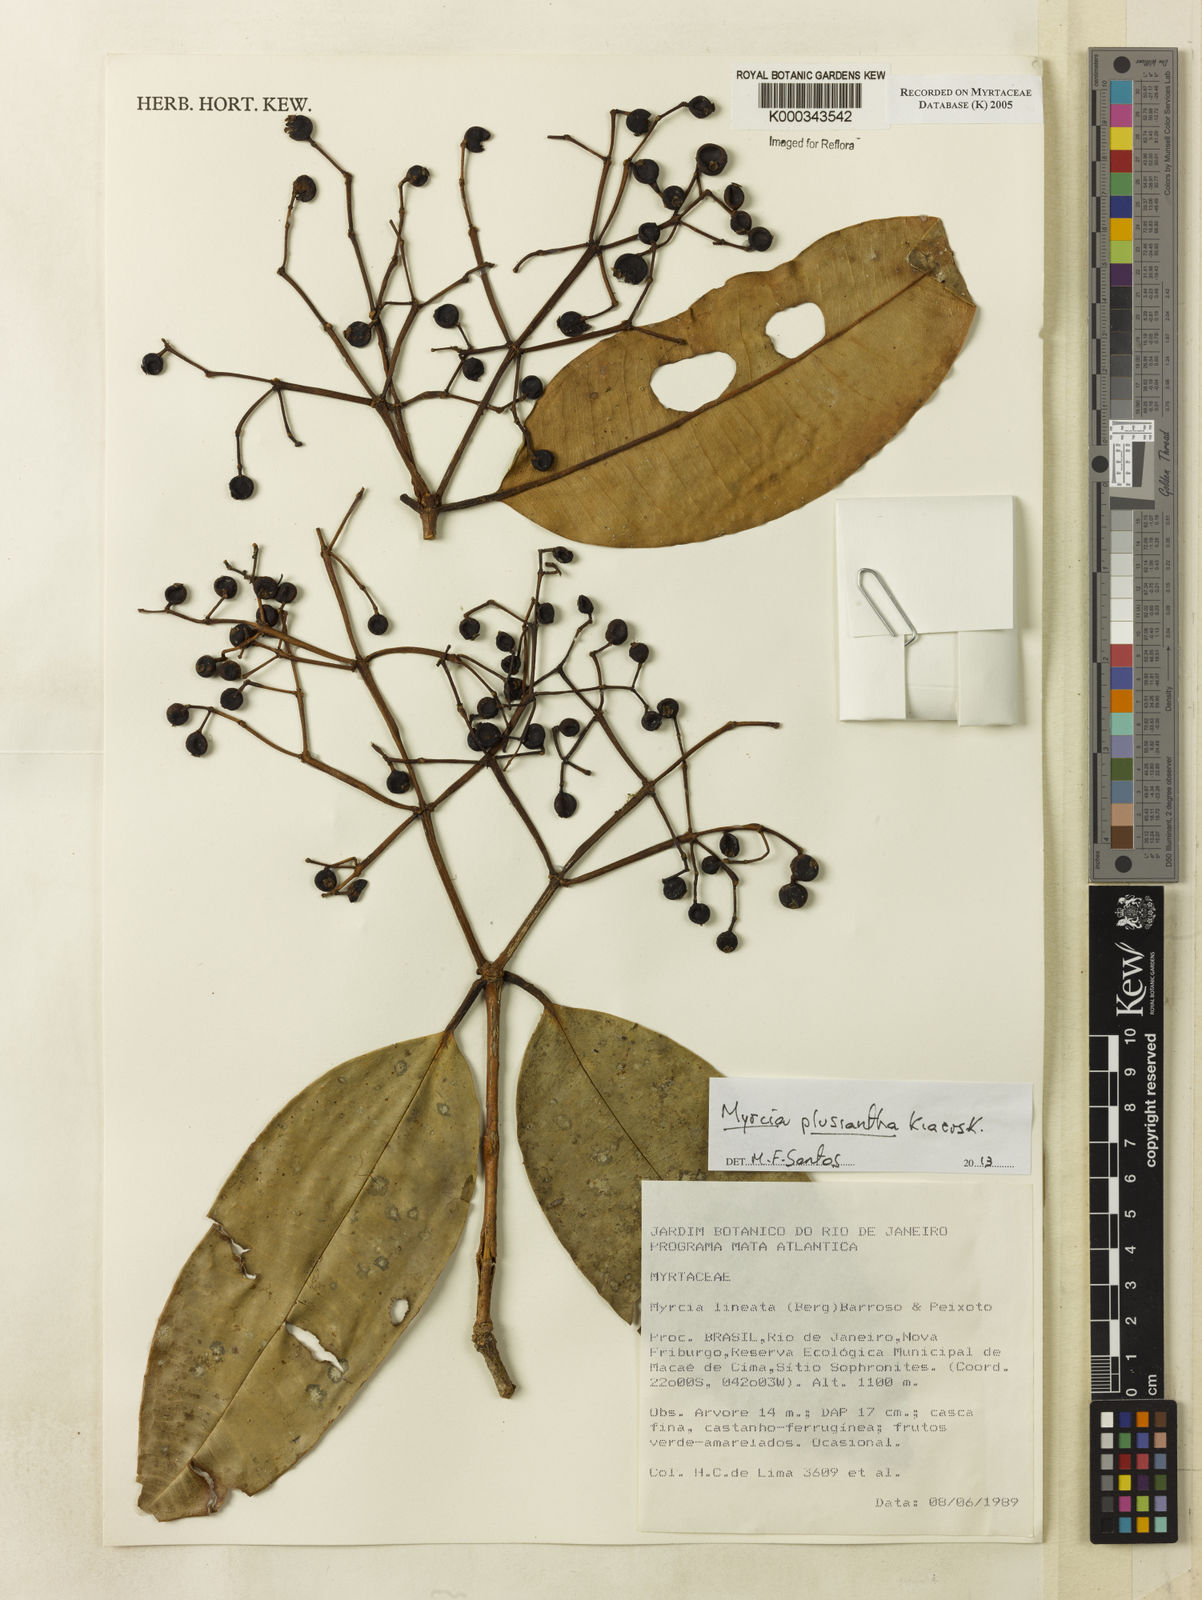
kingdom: Plantae
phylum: Tracheophyta
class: Magnoliopsida
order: Myrtales
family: Myrtaceae
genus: Myrcia
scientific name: Myrcia lineata
